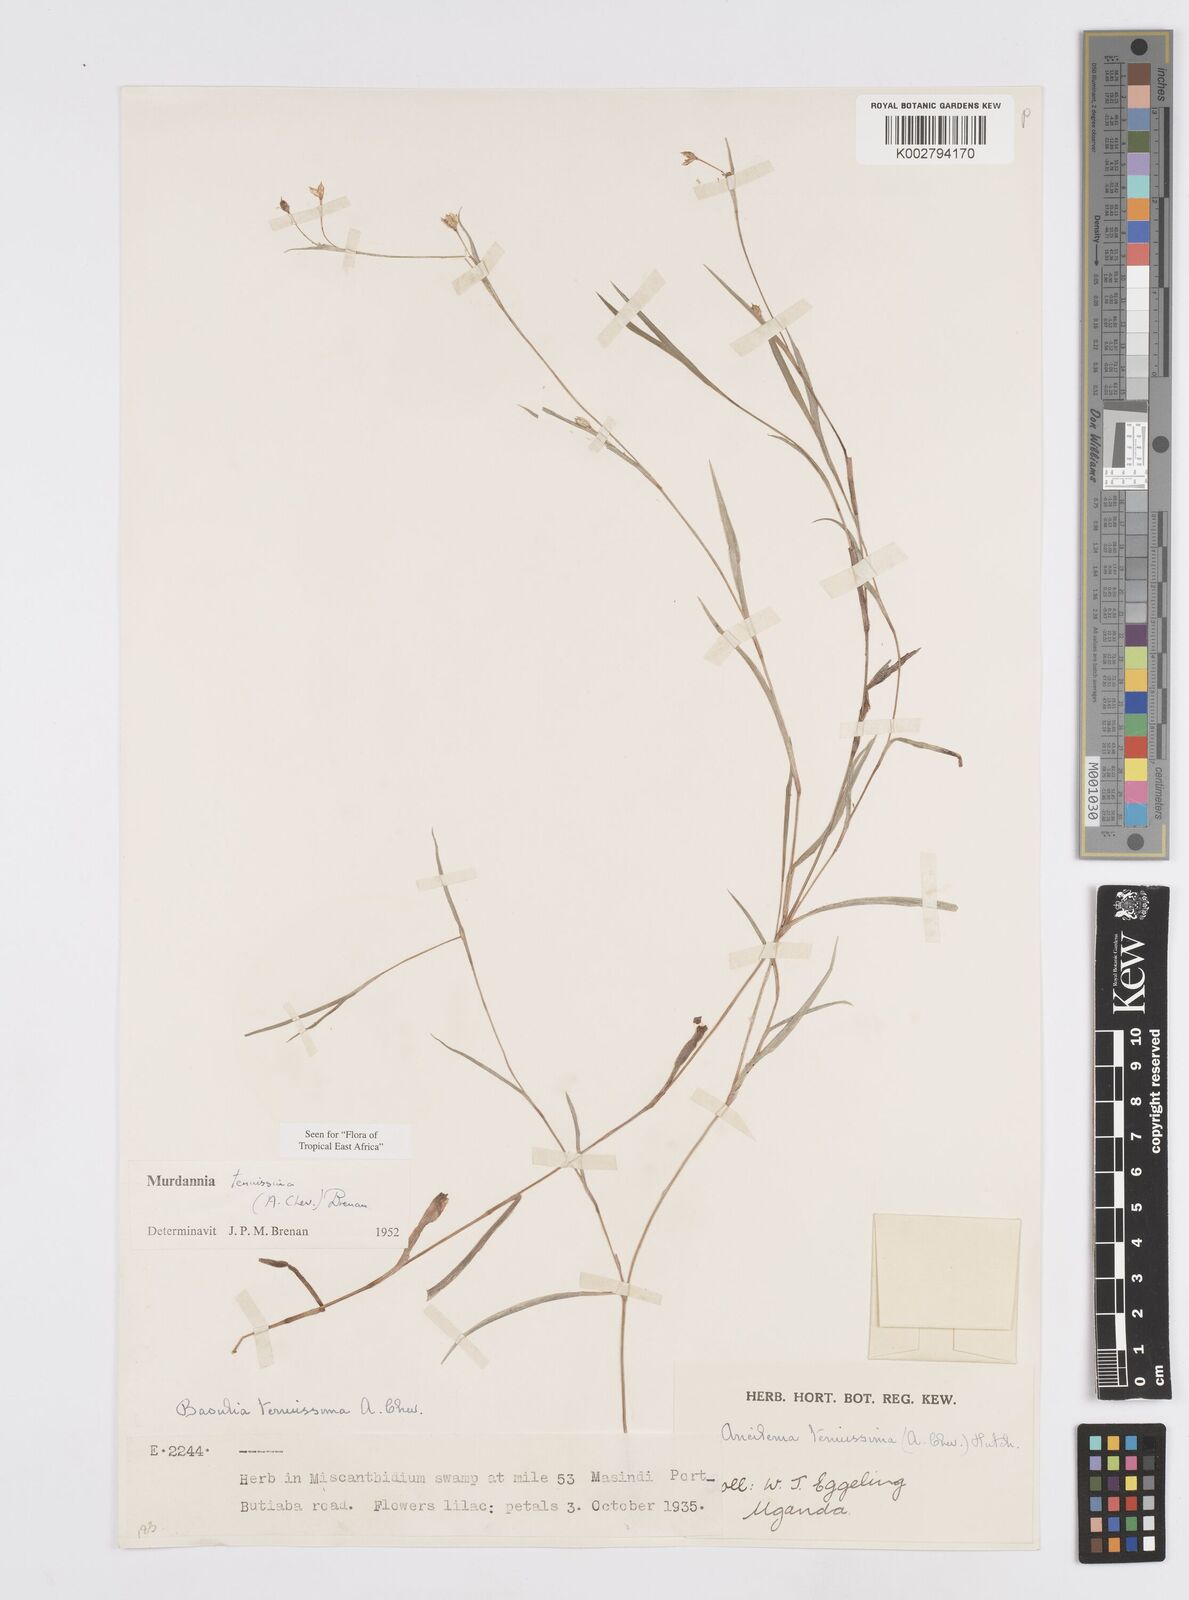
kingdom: Plantae
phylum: Tracheophyta
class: Liliopsida
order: Commelinales
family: Commelinaceae
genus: Murdannia
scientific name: Murdannia tenuissima
